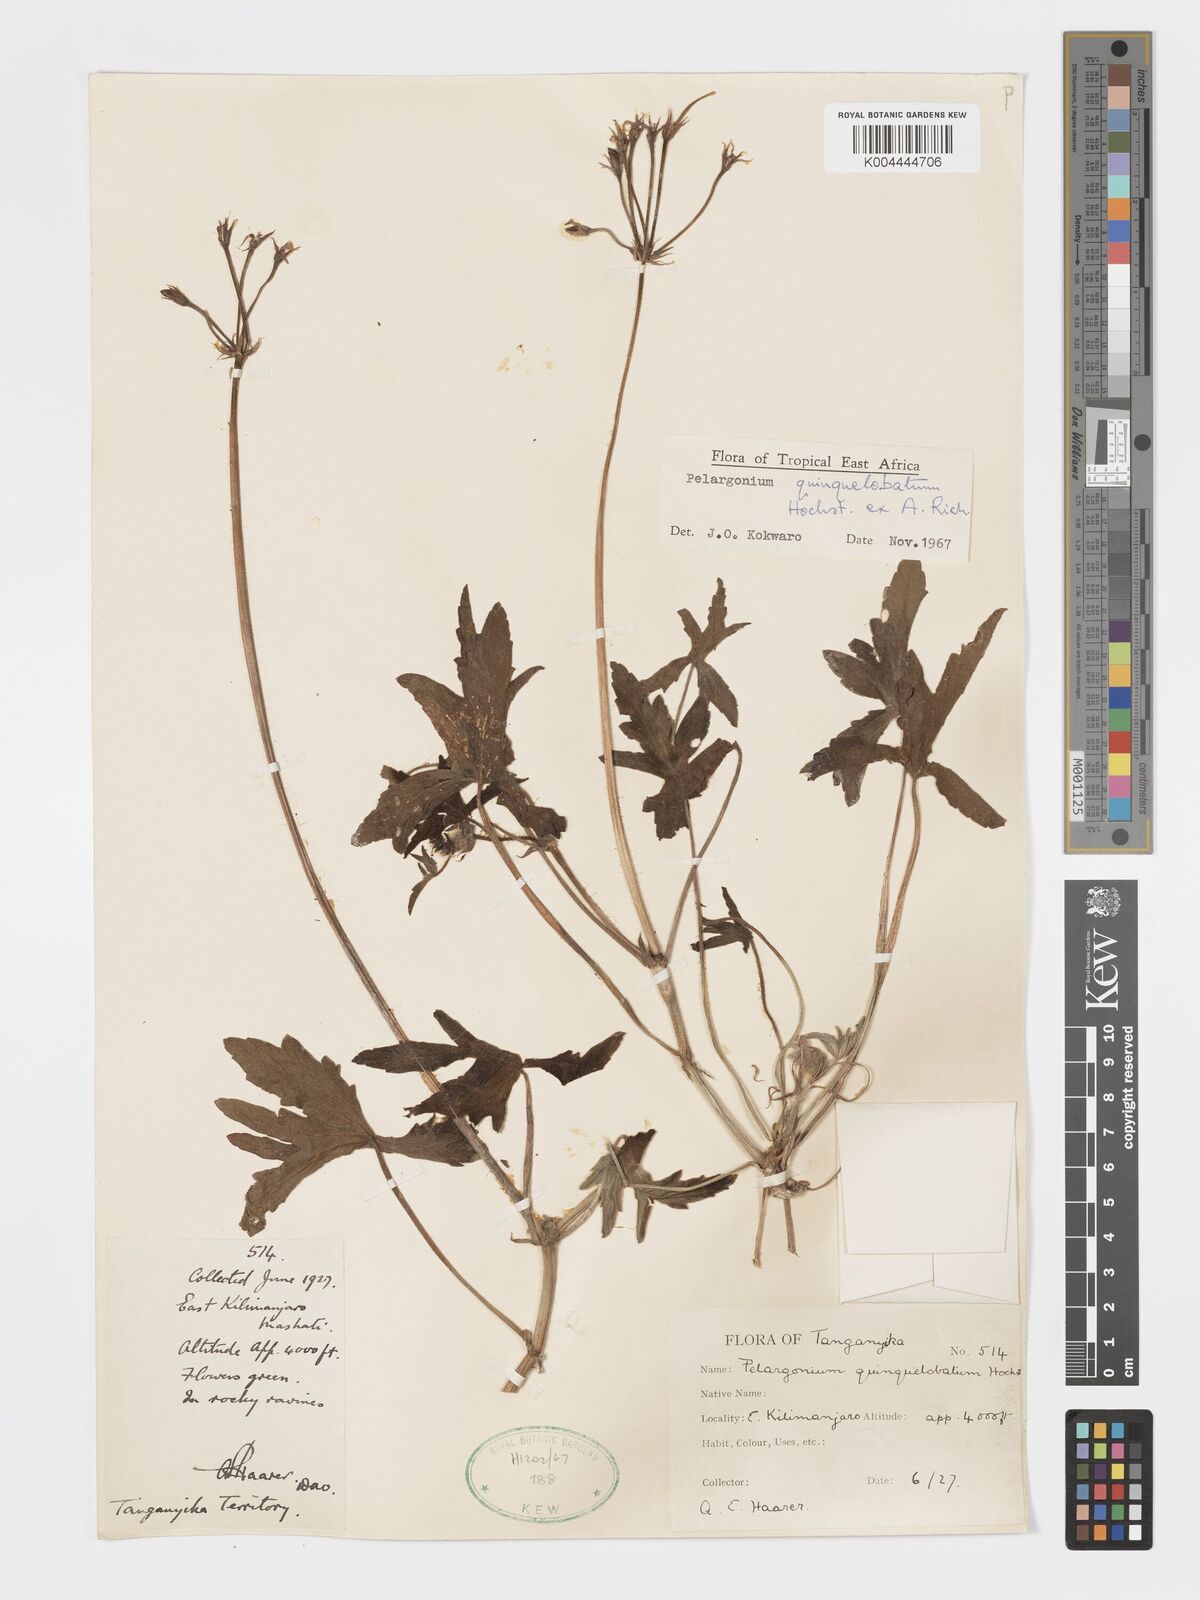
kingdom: Plantae
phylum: Tracheophyta
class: Magnoliopsida
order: Geraniales
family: Geraniaceae
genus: Pelargonium
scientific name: Pelargonium quinquelobatum
